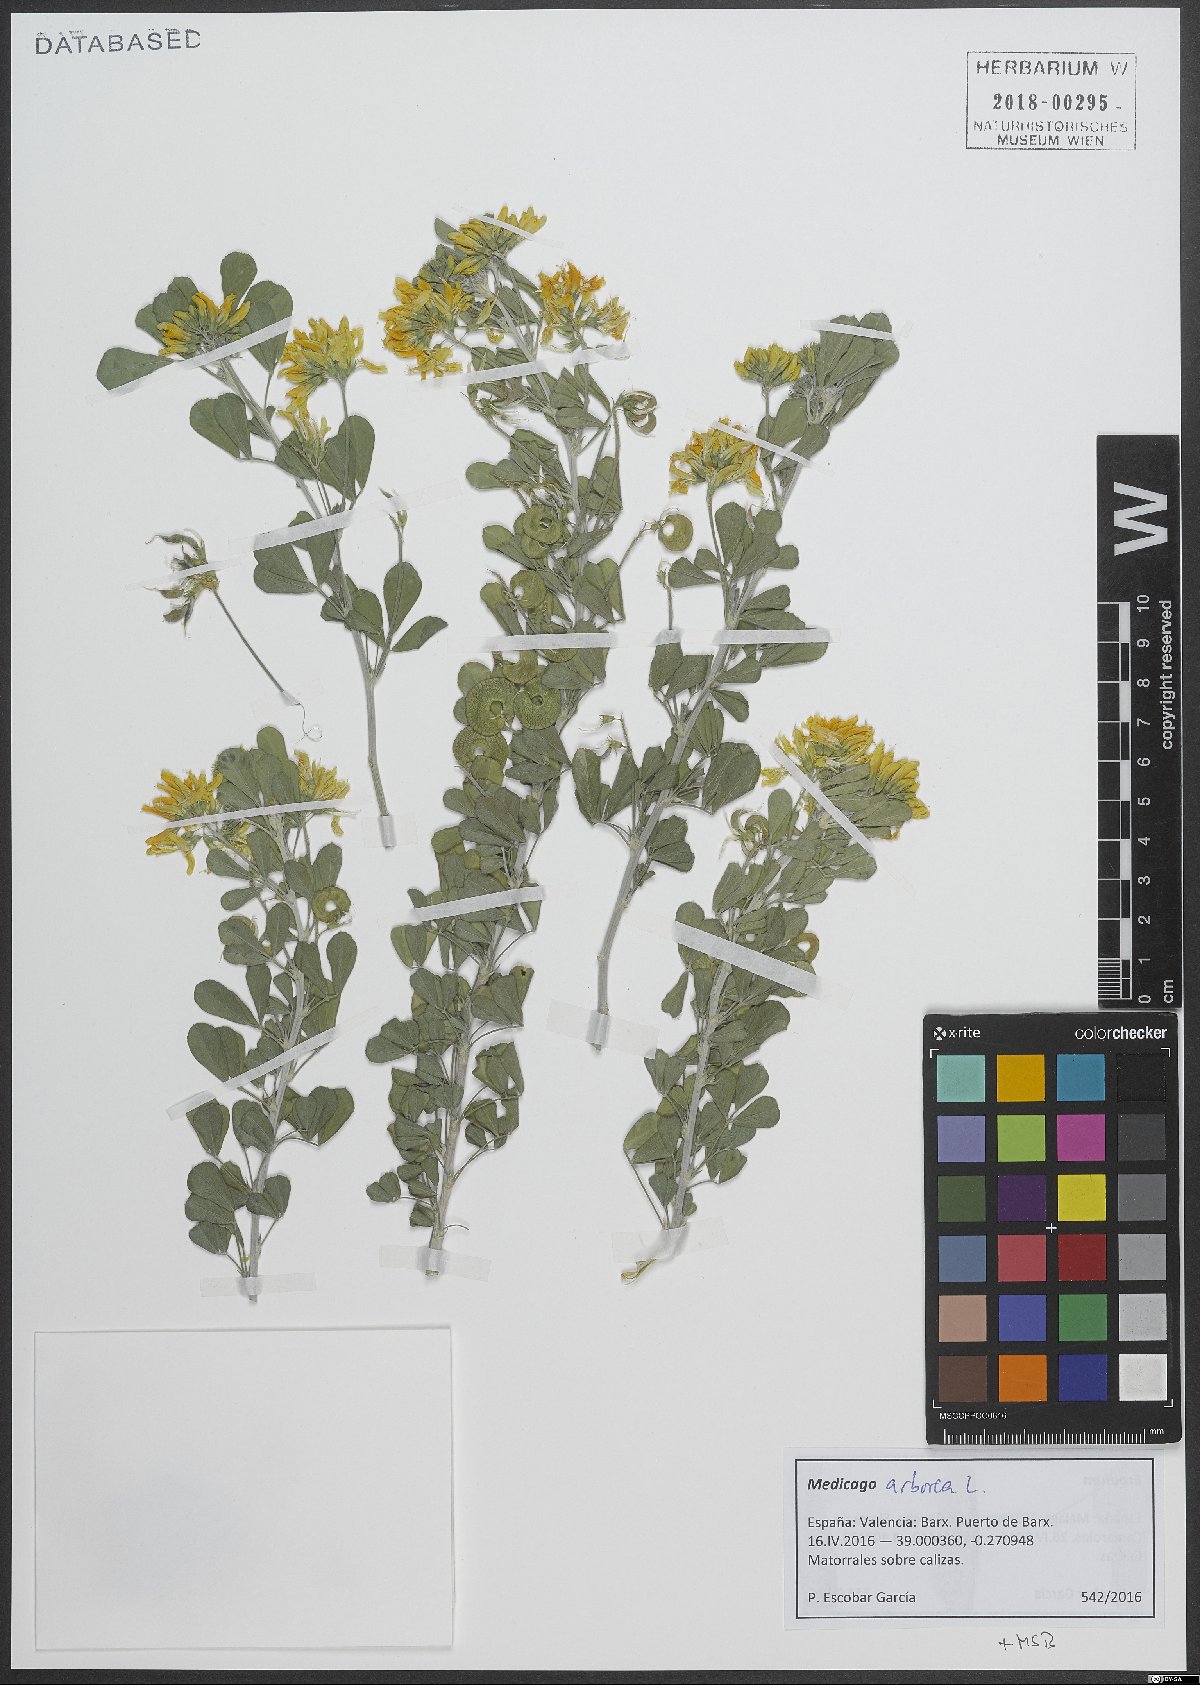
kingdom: Plantae
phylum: Tracheophyta
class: Magnoliopsida
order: Fabales
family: Fabaceae
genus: Medicago
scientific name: Medicago arborea
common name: Moon trefoil
